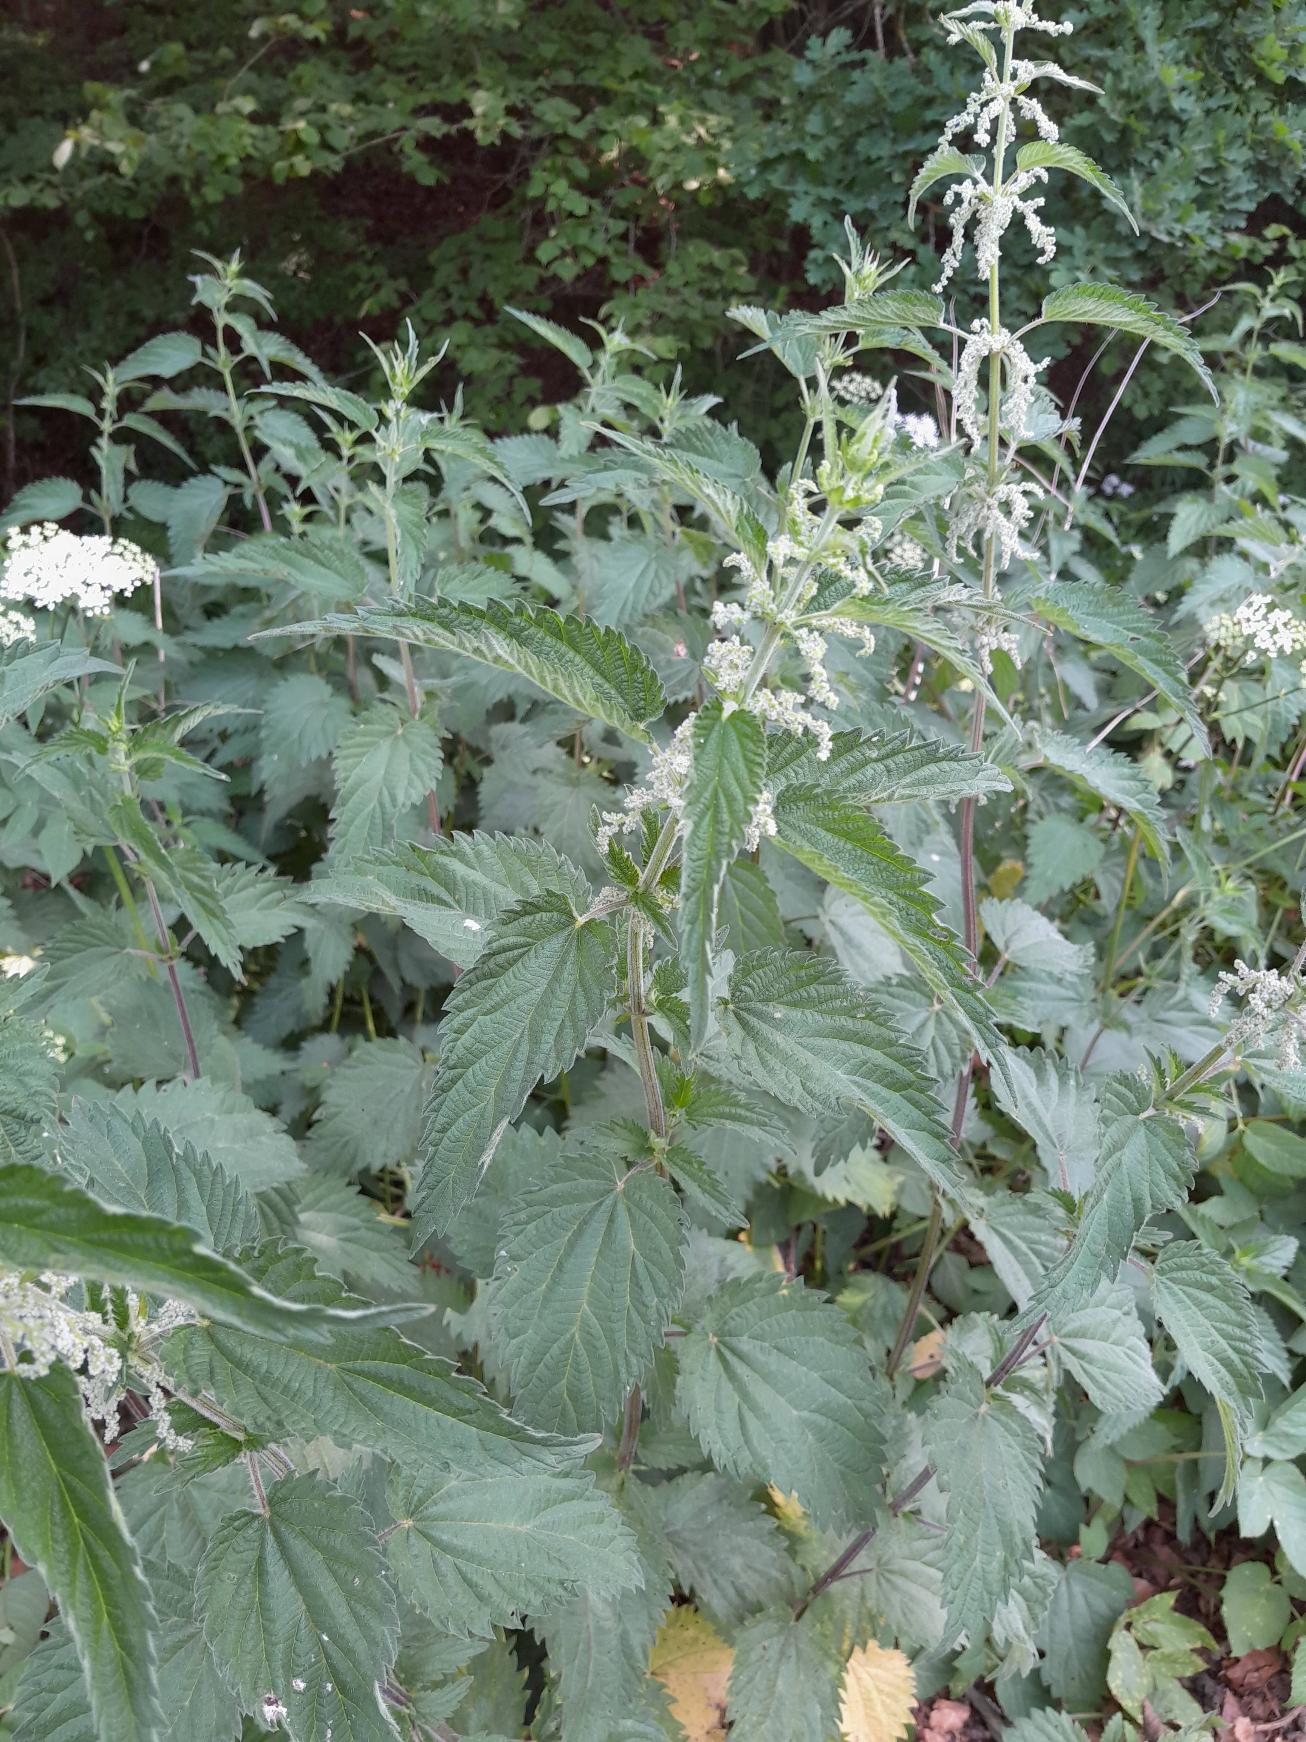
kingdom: Plantae
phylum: Tracheophyta
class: Magnoliopsida
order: Rosales
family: Urticaceae
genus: Urtica
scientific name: Urtica dioica
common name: Stor nælde
